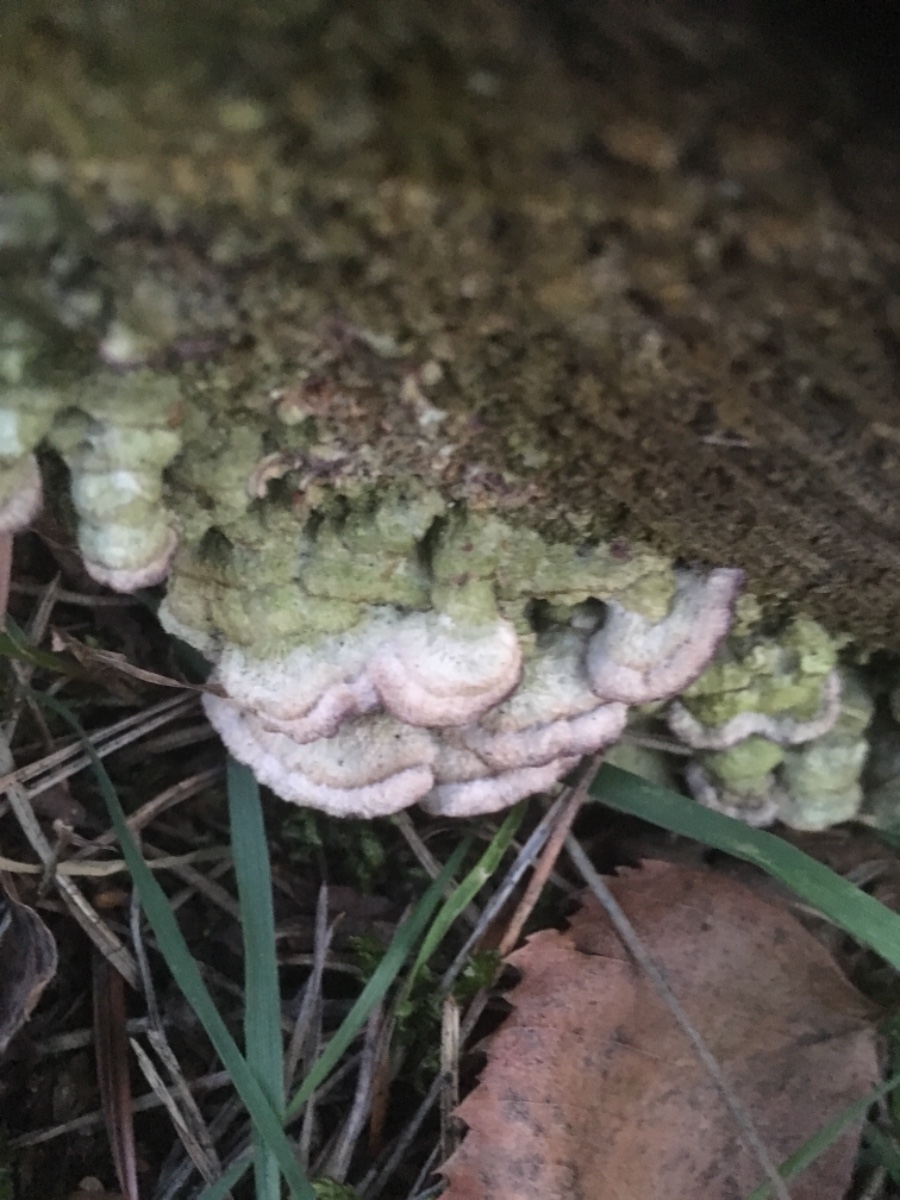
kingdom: Fungi
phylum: Basidiomycota
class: Agaricomycetes
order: Hymenochaetales
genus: Trichaptum
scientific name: Trichaptum fuscoviolaceum
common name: tandet violporesvamp
